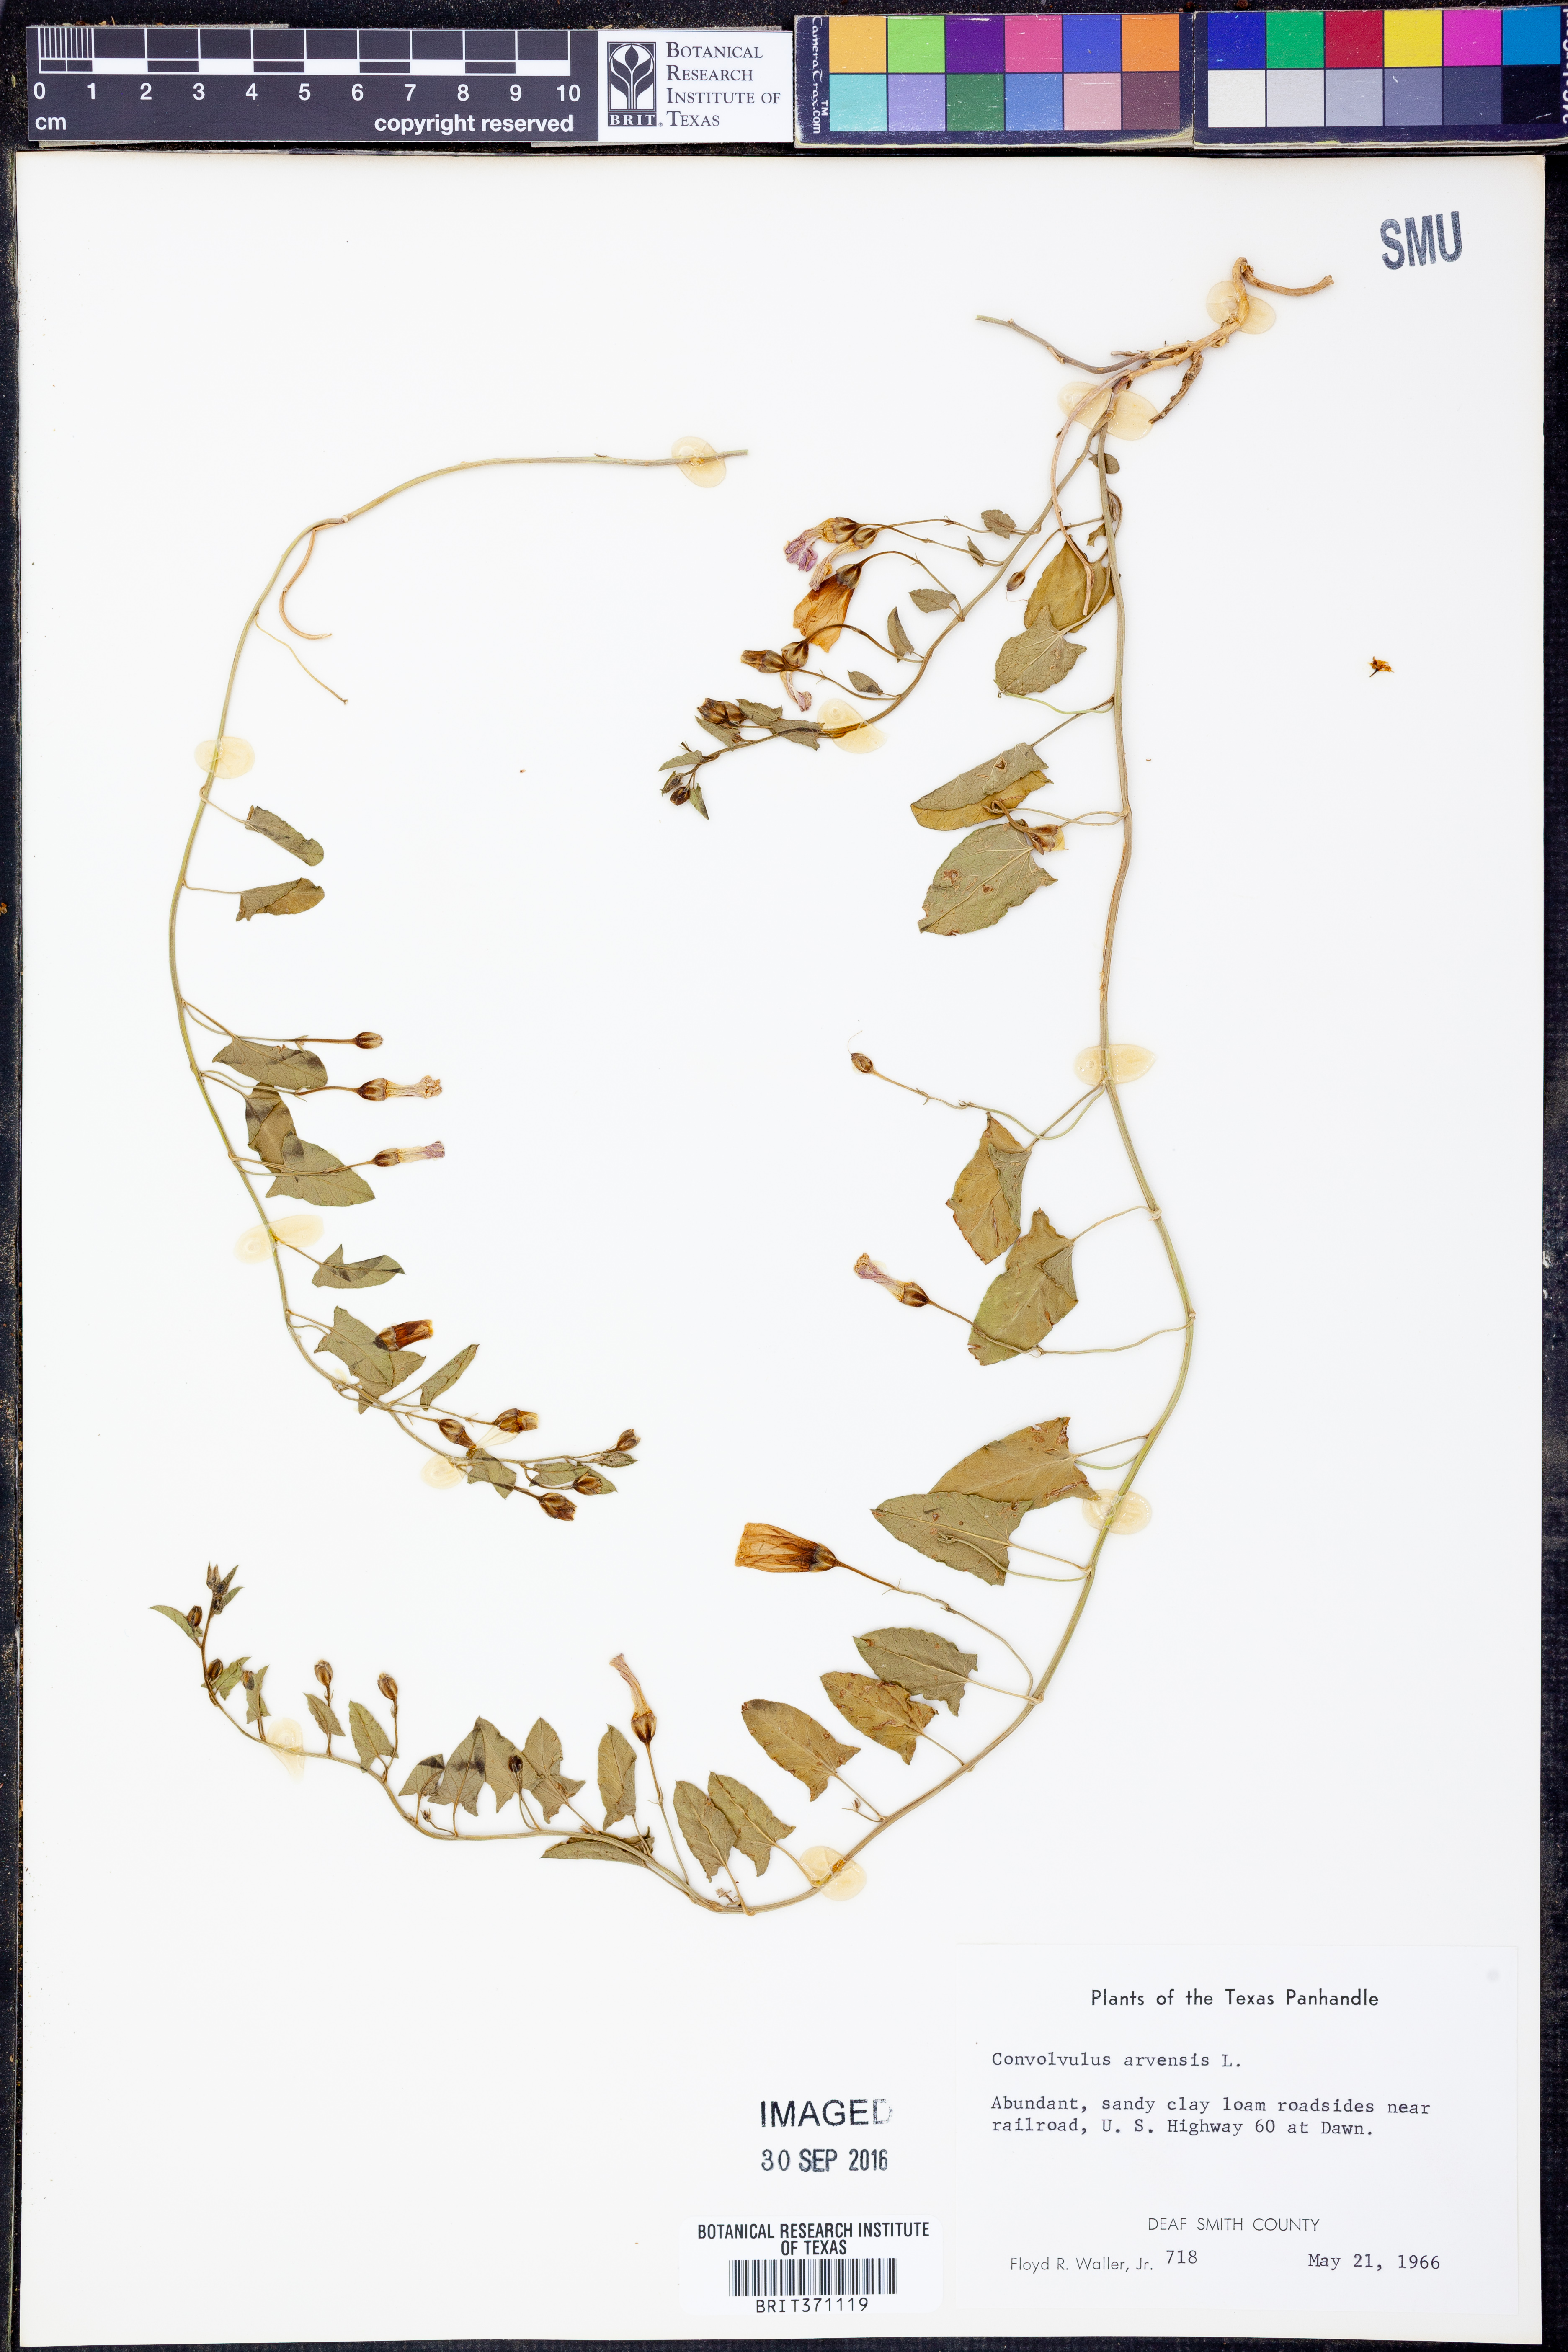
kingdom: Plantae
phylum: Tracheophyta
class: Magnoliopsida
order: Solanales
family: Convolvulaceae
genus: Convolvulus
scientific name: Convolvulus arvensis
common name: Field bindweed
